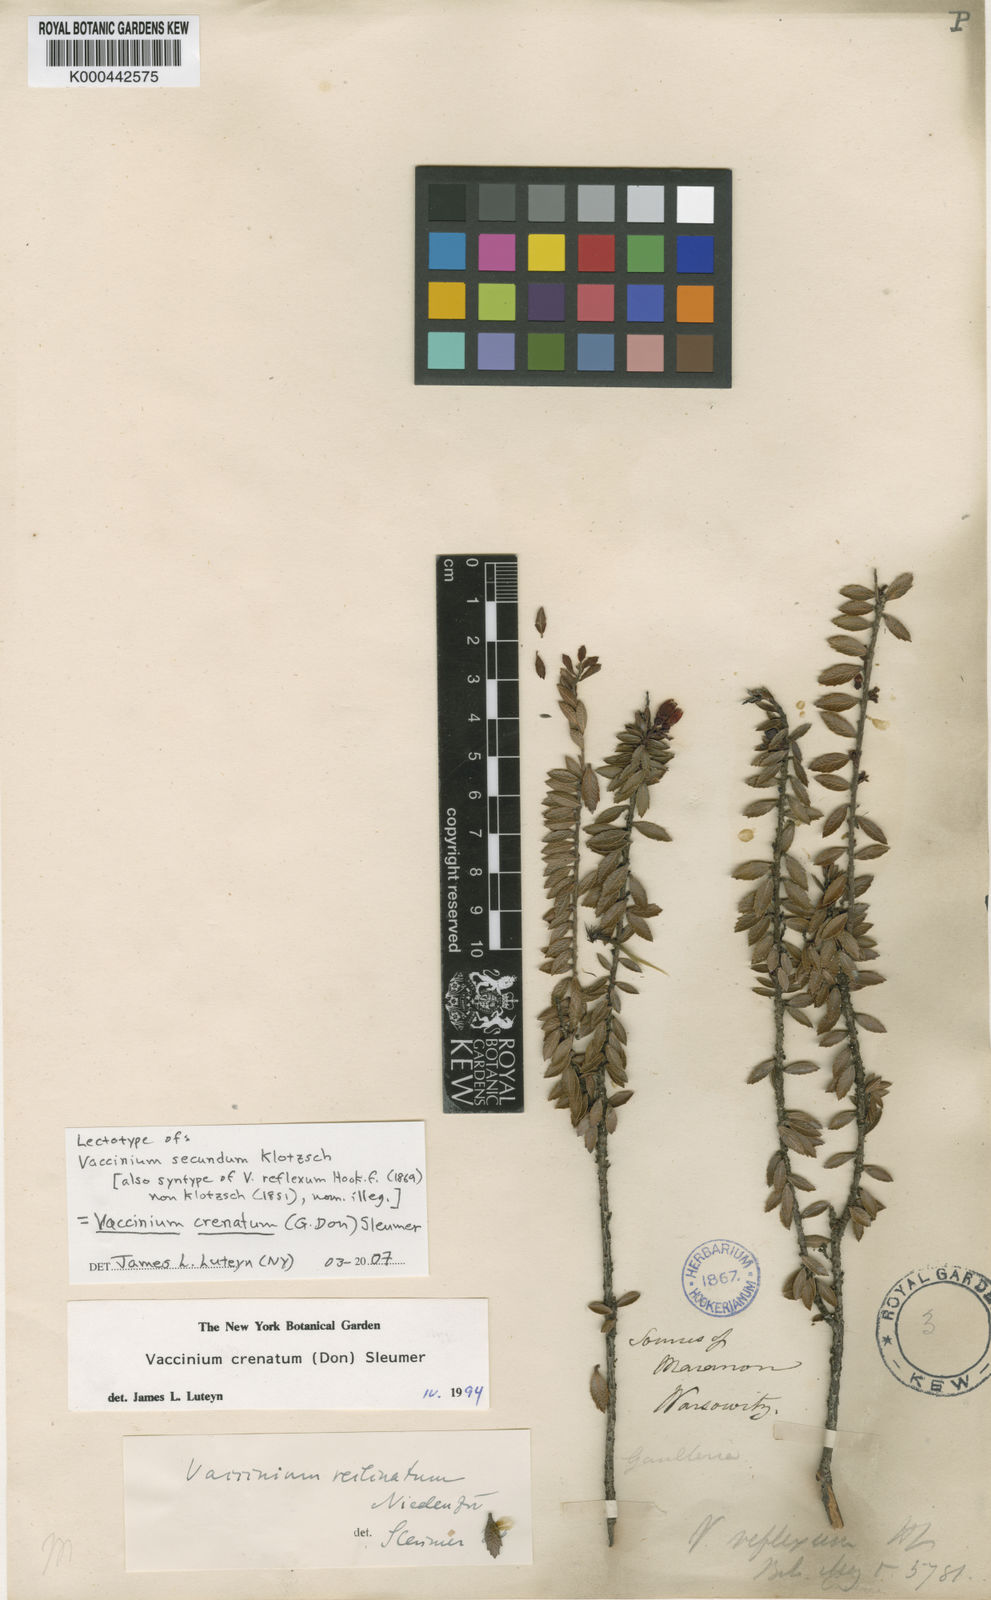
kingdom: Plantae
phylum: Tracheophyta
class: Magnoliopsida
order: Ericales
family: Ericaceae
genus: Vaccinium
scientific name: Vaccinium crenatum
